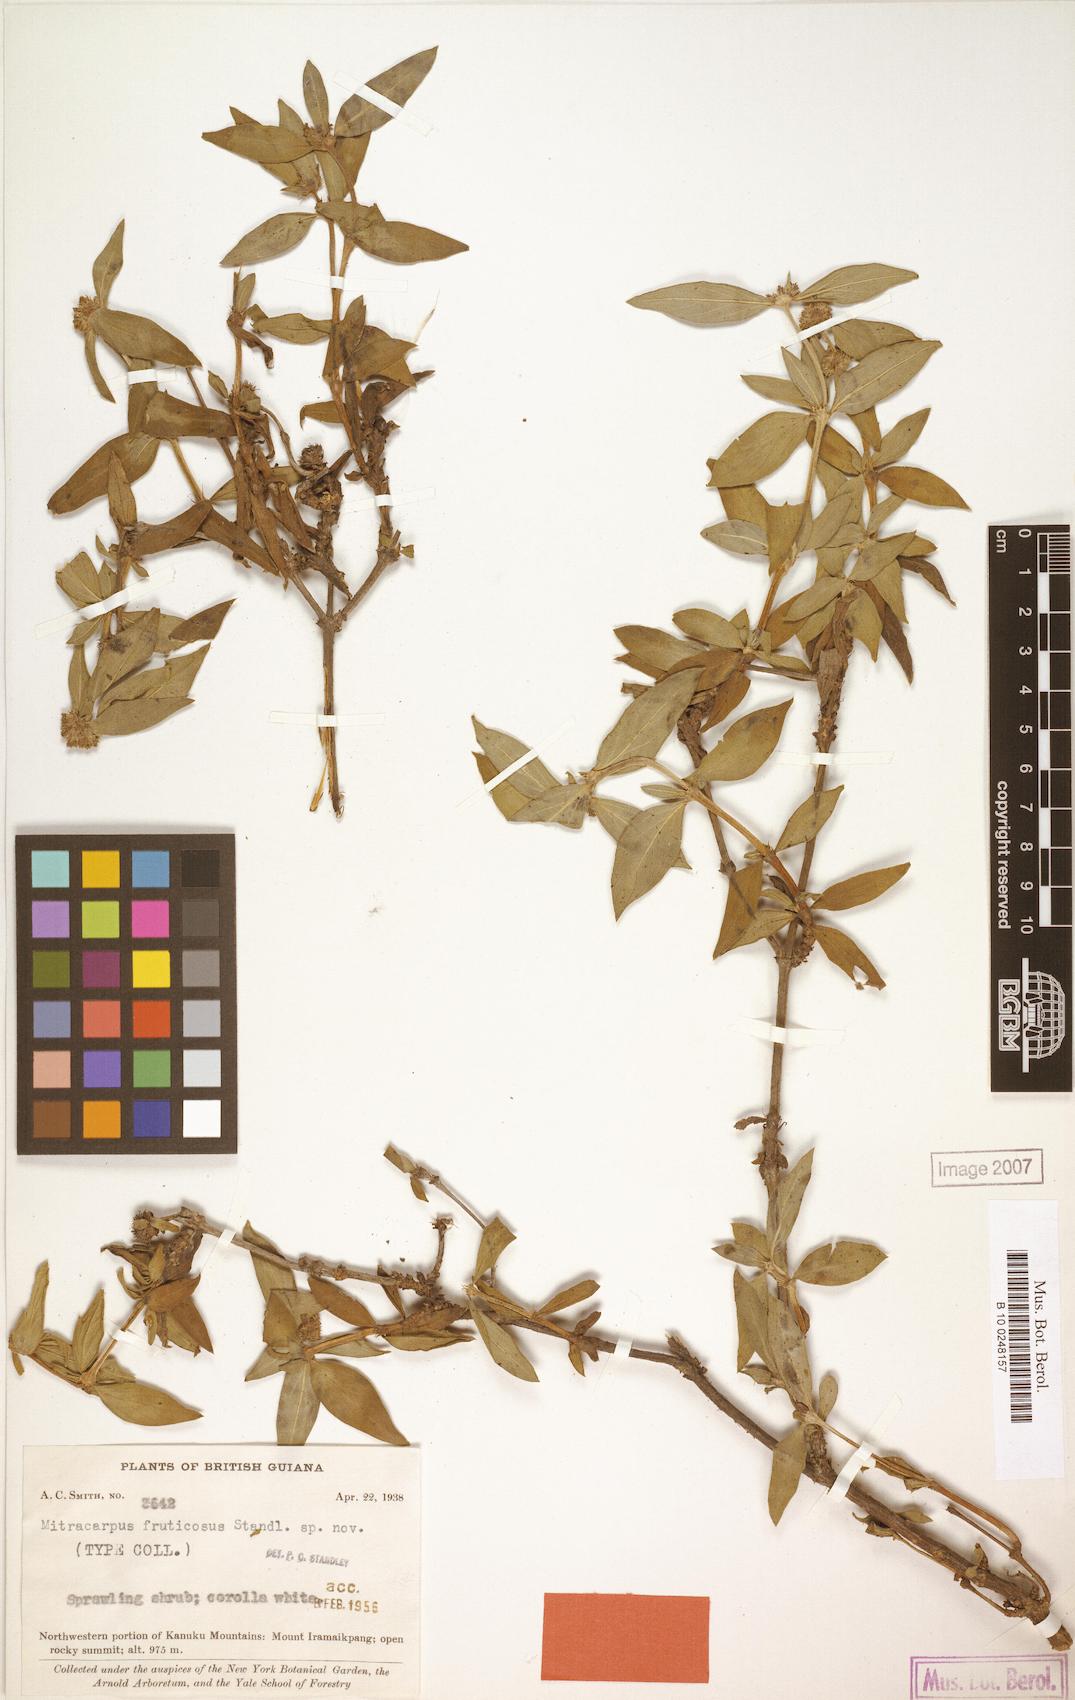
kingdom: Plantae
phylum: Tracheophyta
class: Magnoliopsida
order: Gentianales
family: Rubiaceae
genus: Mitracarpus
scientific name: Mitracarpus frigidus
